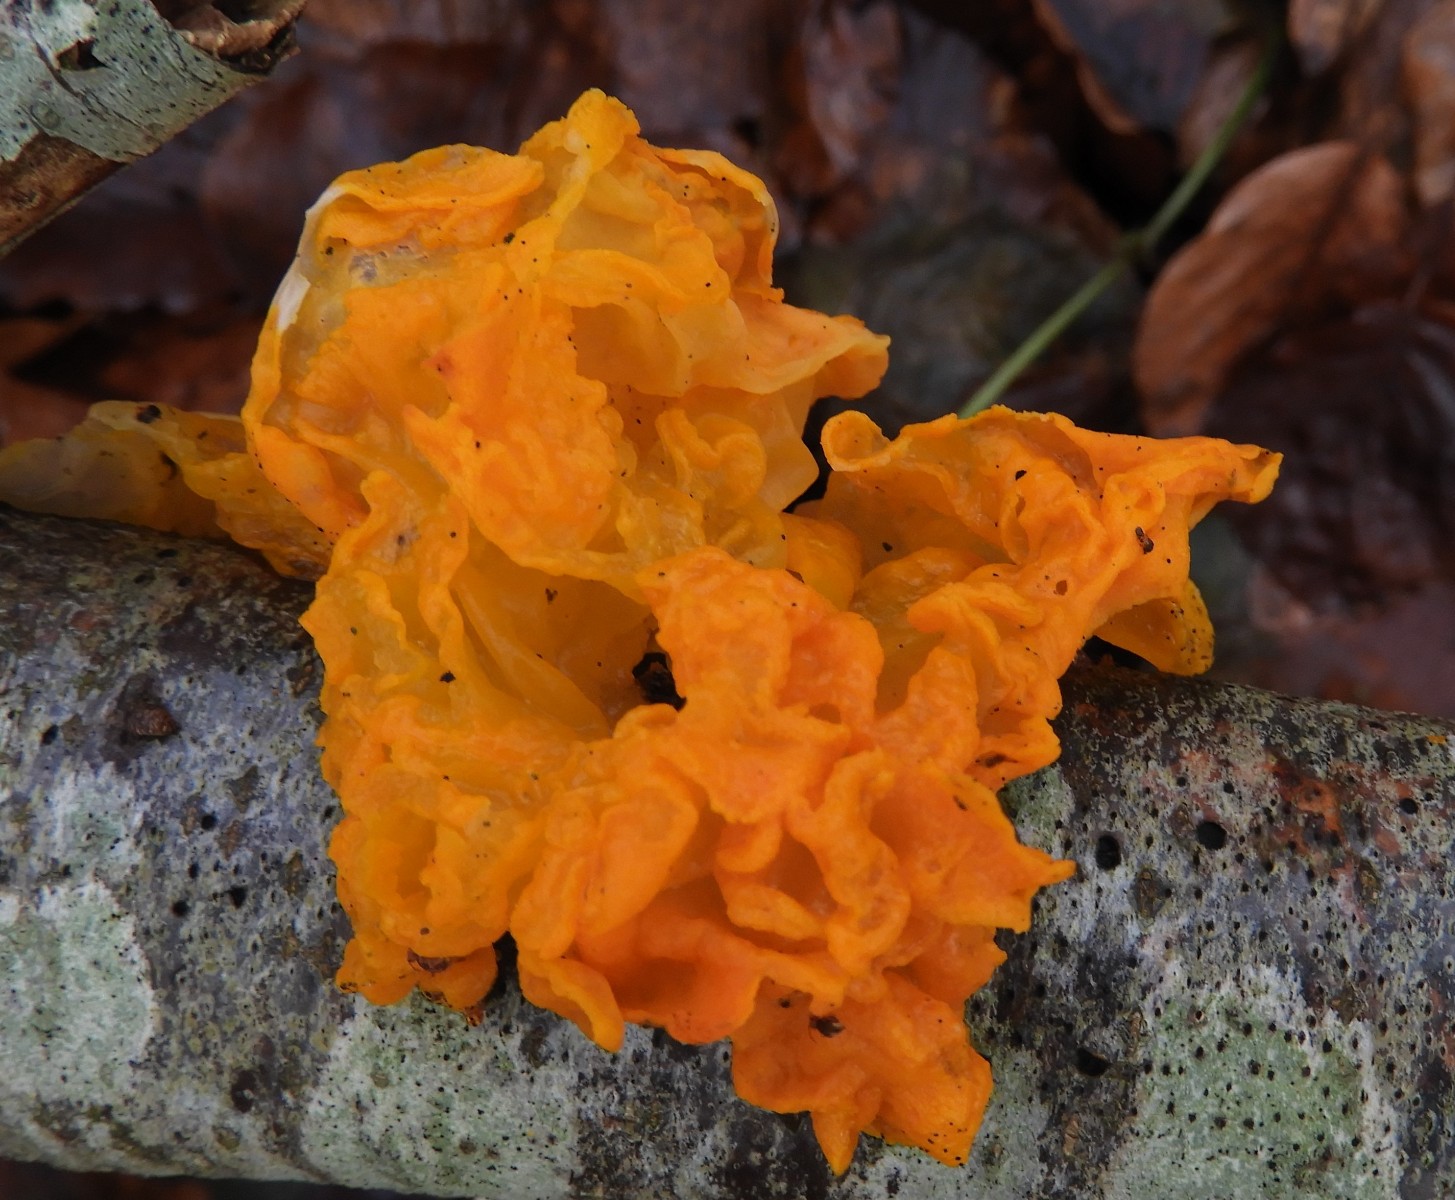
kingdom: Fungi
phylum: Basidiomycota
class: Tremellomycetes
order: Tremellales
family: Tremellaceae
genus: Tremella
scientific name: Tremella mesenterica
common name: gul bævresvamp
